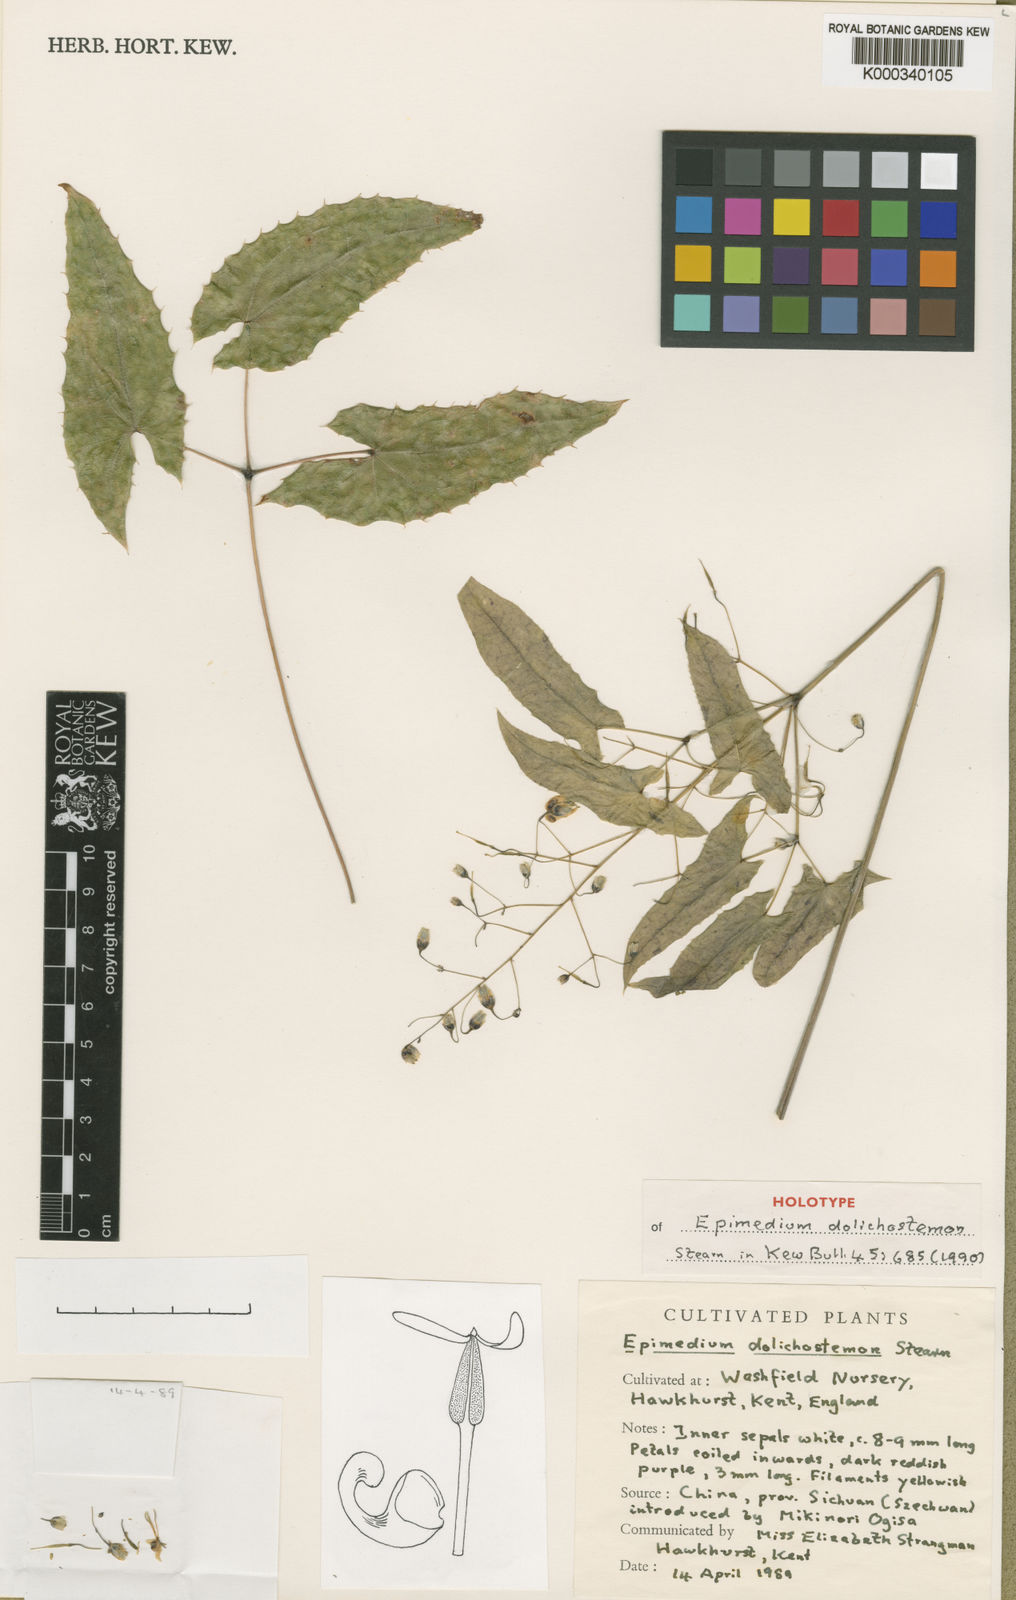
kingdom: Plantae
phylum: Tracheophyta
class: Magnoliopsida
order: Ranunculales
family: Berberidaceae
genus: Epimedium
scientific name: Epimedium dolichostemon
